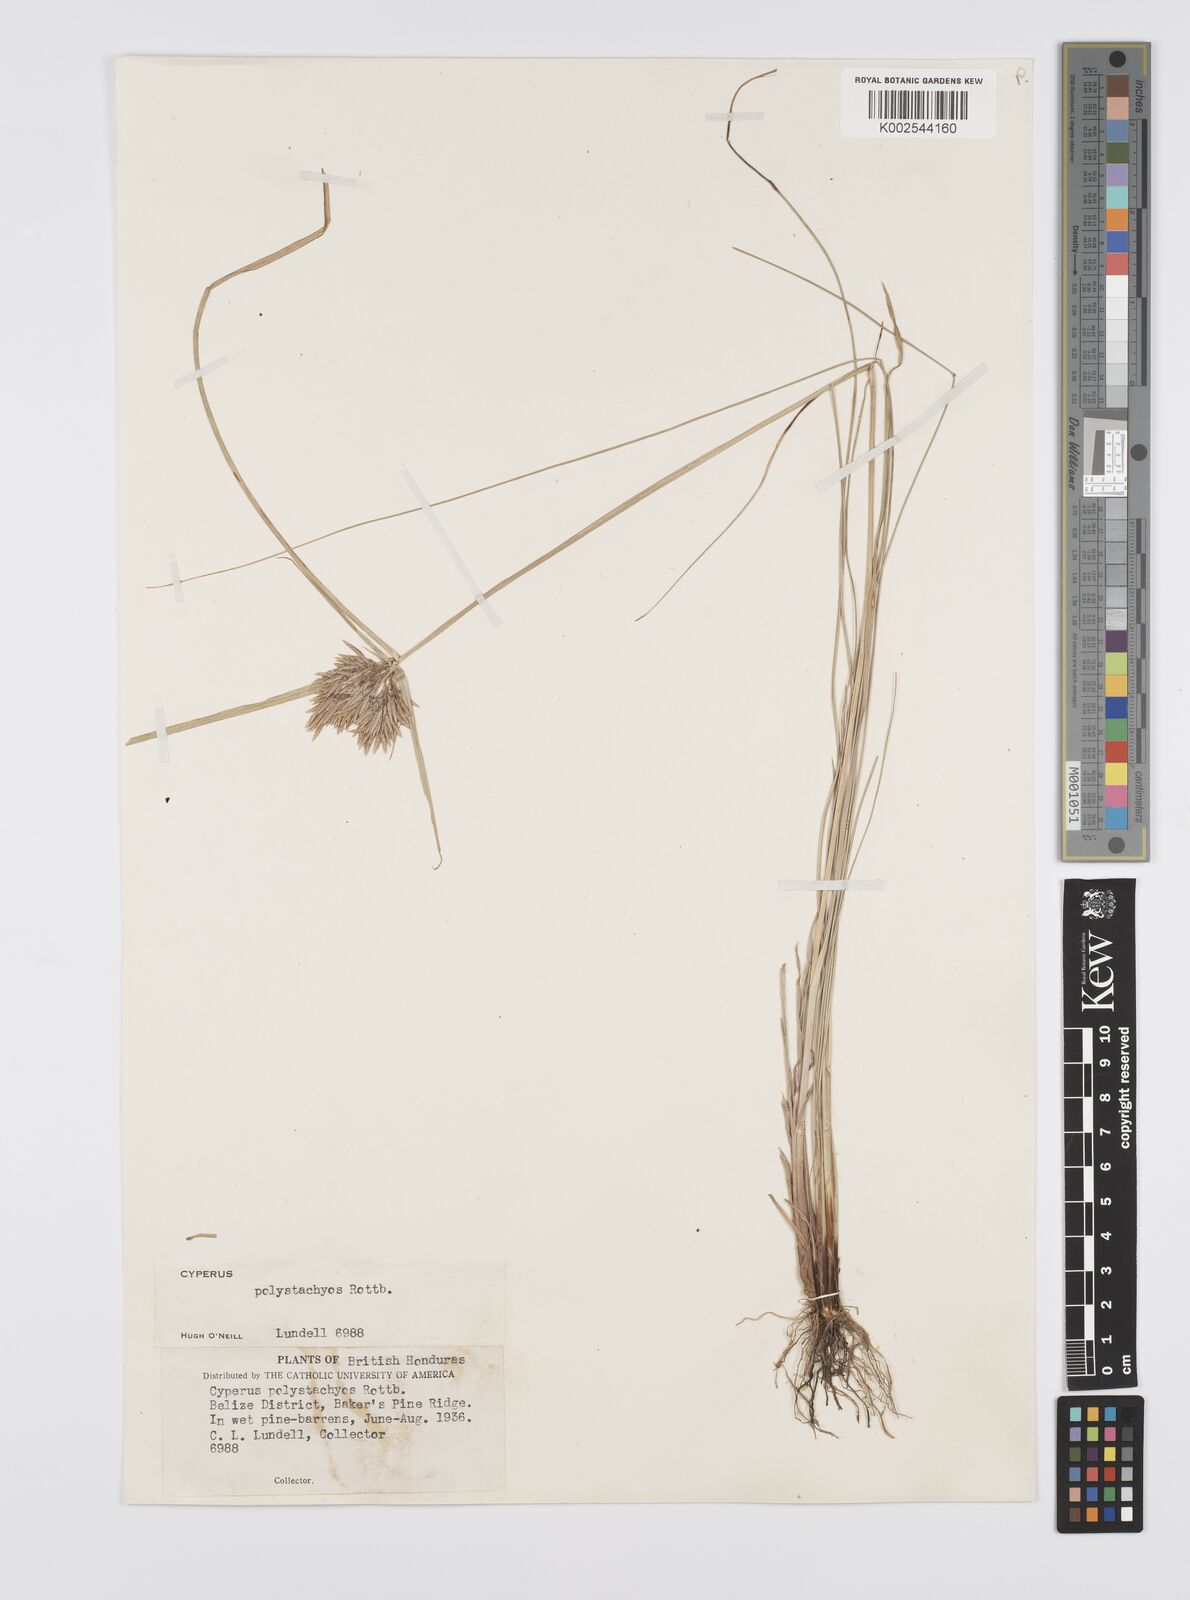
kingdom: Plantae
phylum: Tracheophyta
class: Liliopsida
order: Poales
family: Cyperaceae
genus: Cyperus
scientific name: Cyperus polystachyos
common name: Bunchy flat sedge
